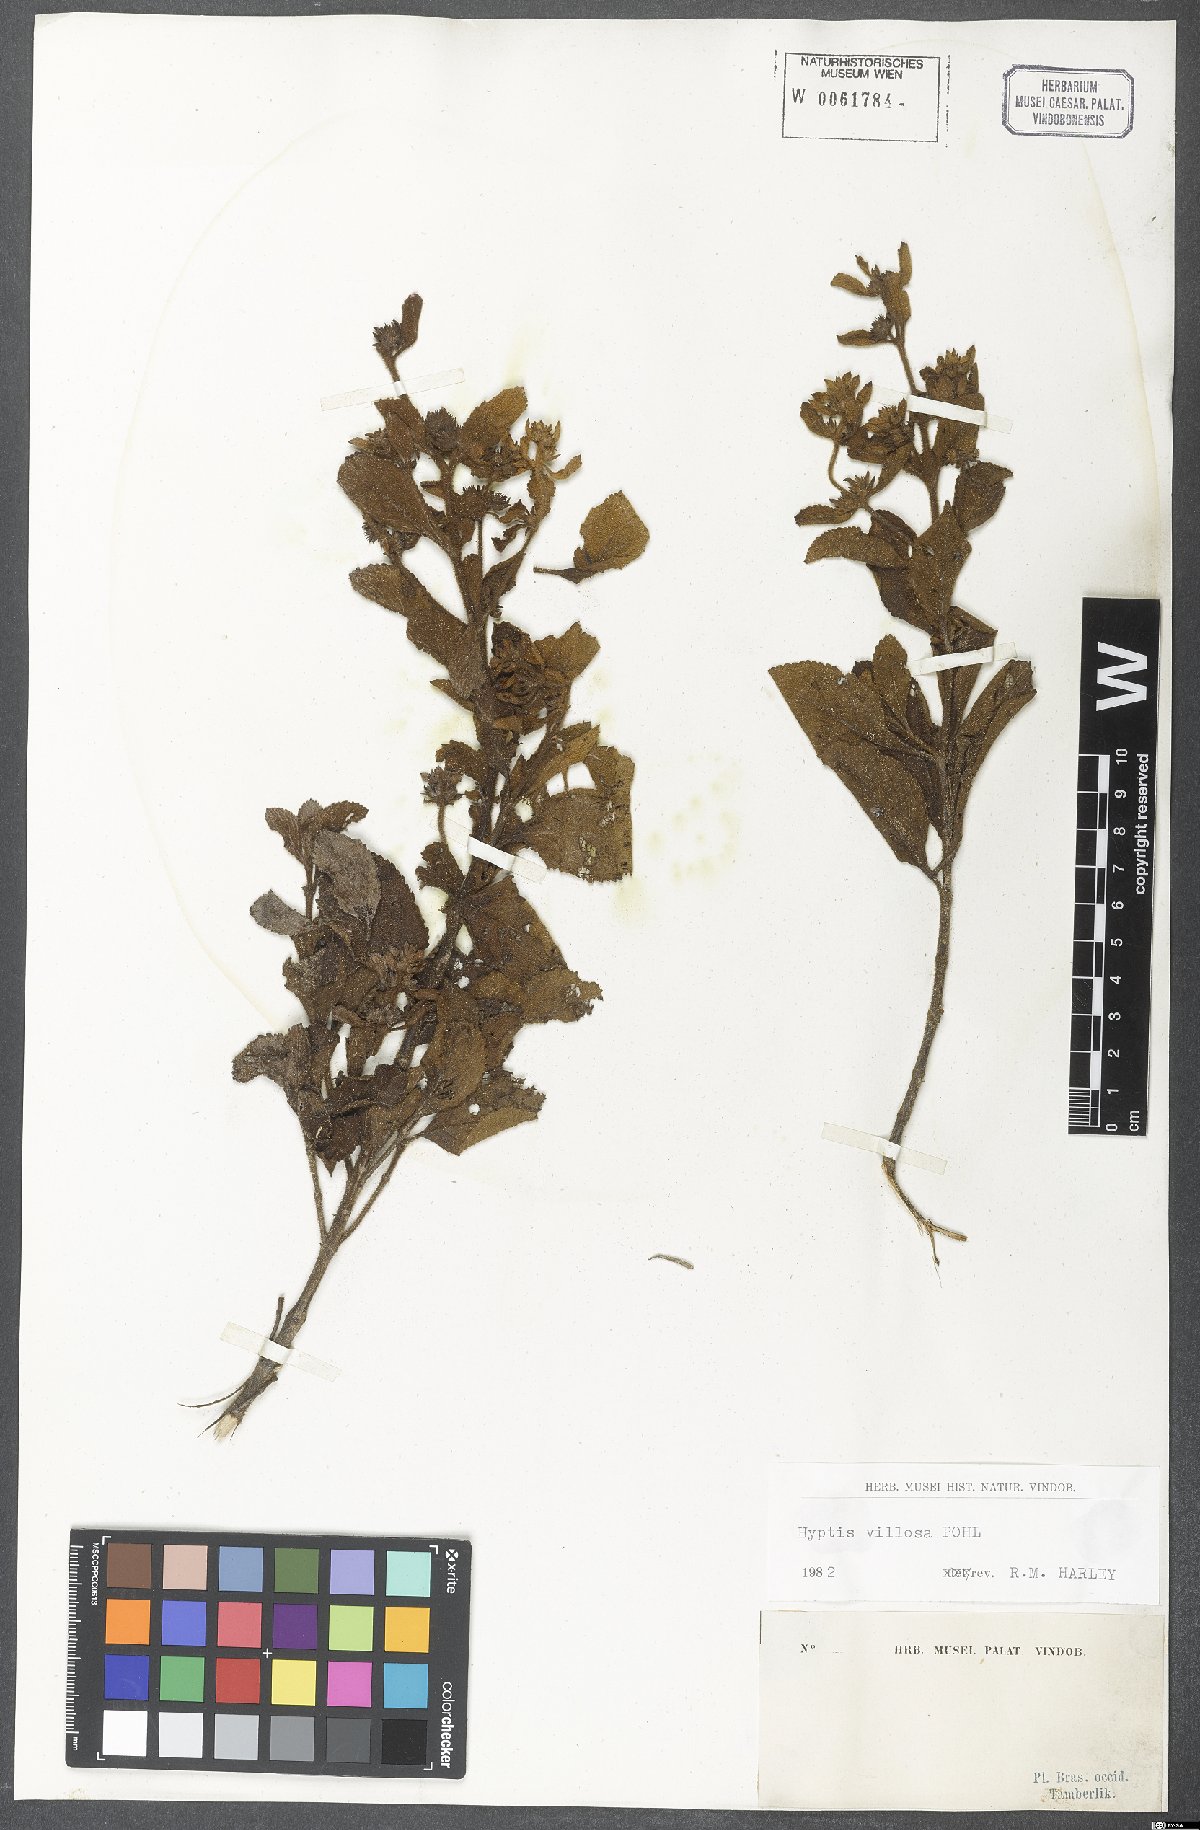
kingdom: Plantae
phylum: Tracheophyta
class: Magnoliopsida
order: Lamiales
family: Lamiaceae
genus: Hyptis
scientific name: Hyptis villosa
